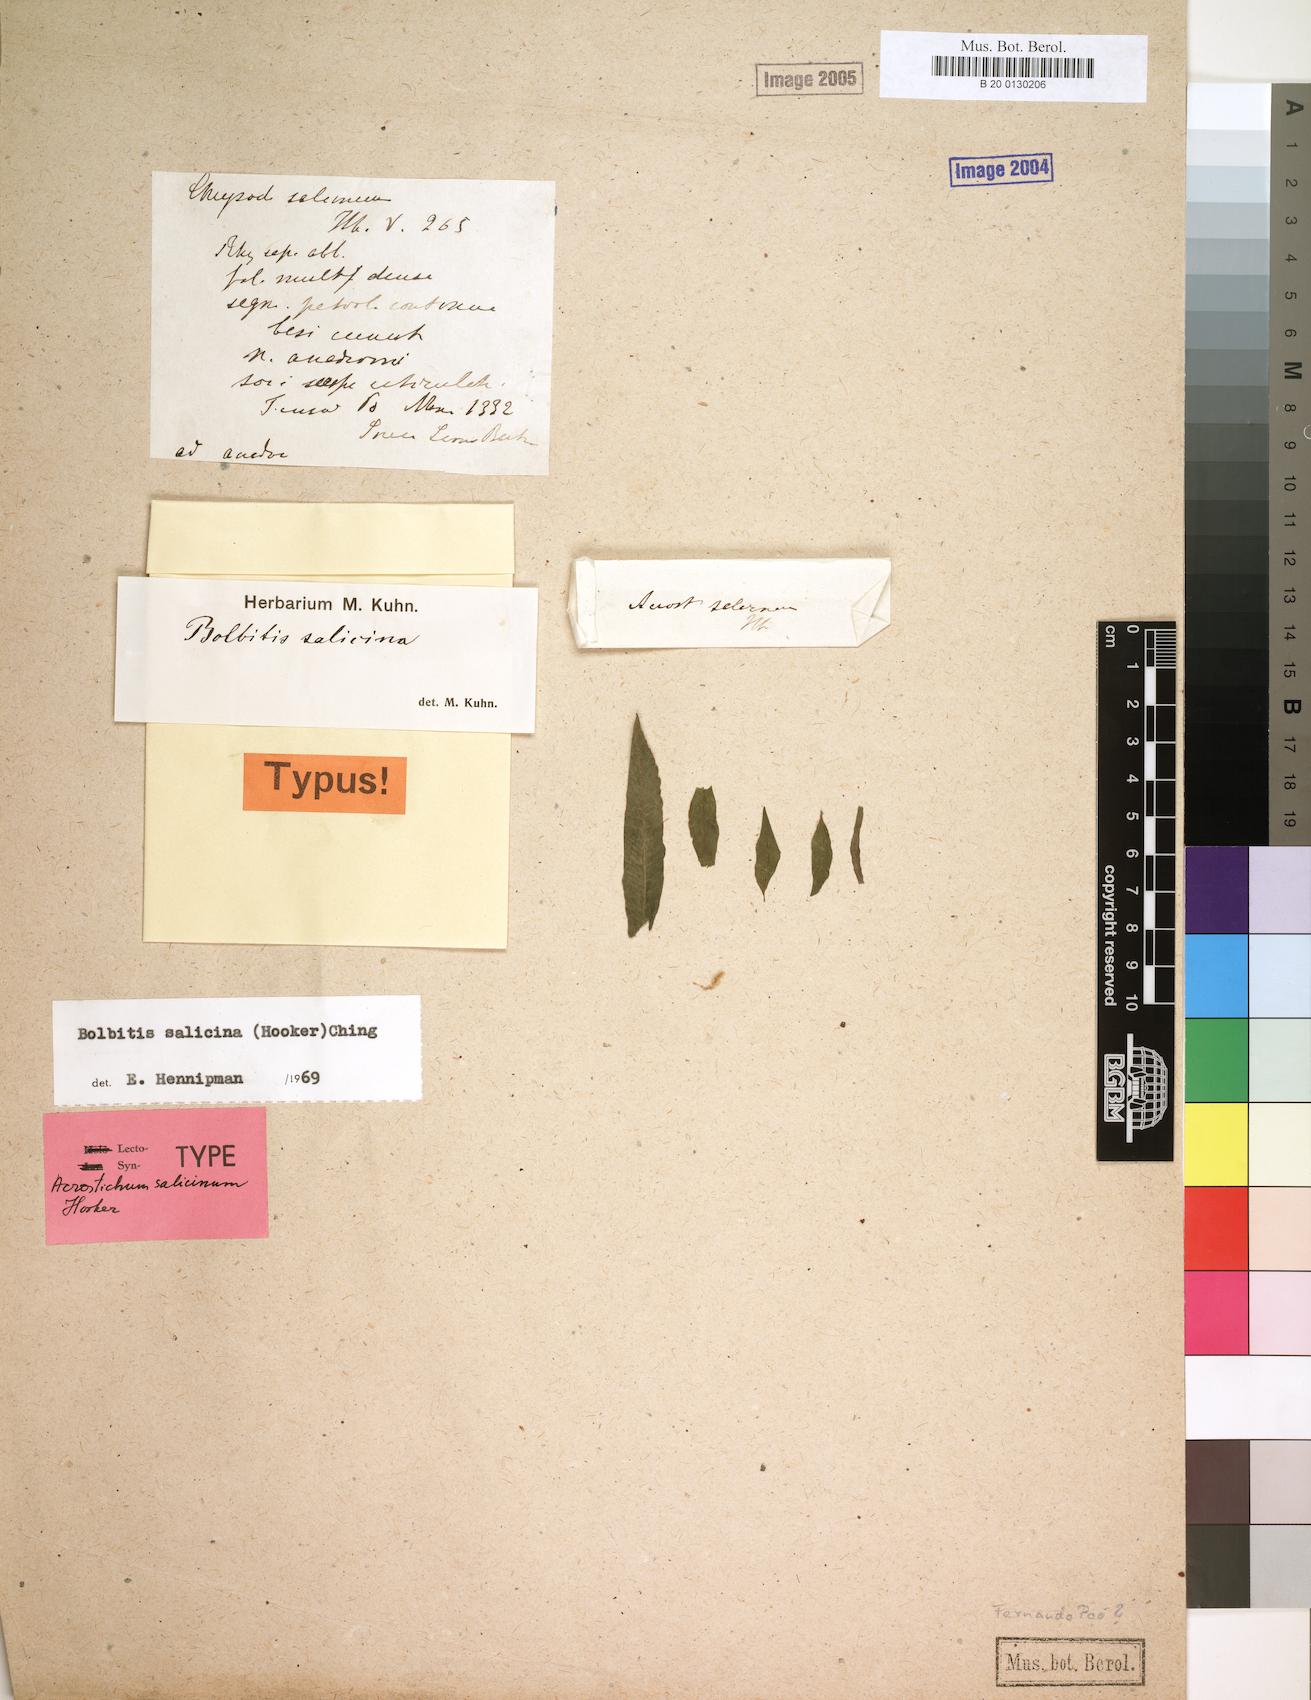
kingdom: Plantae
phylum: Tracheophyta
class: Polypodiopsida
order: Polypodiales
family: Dryopteridaceae
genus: Bolbitis
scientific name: Bolbitis salicina
